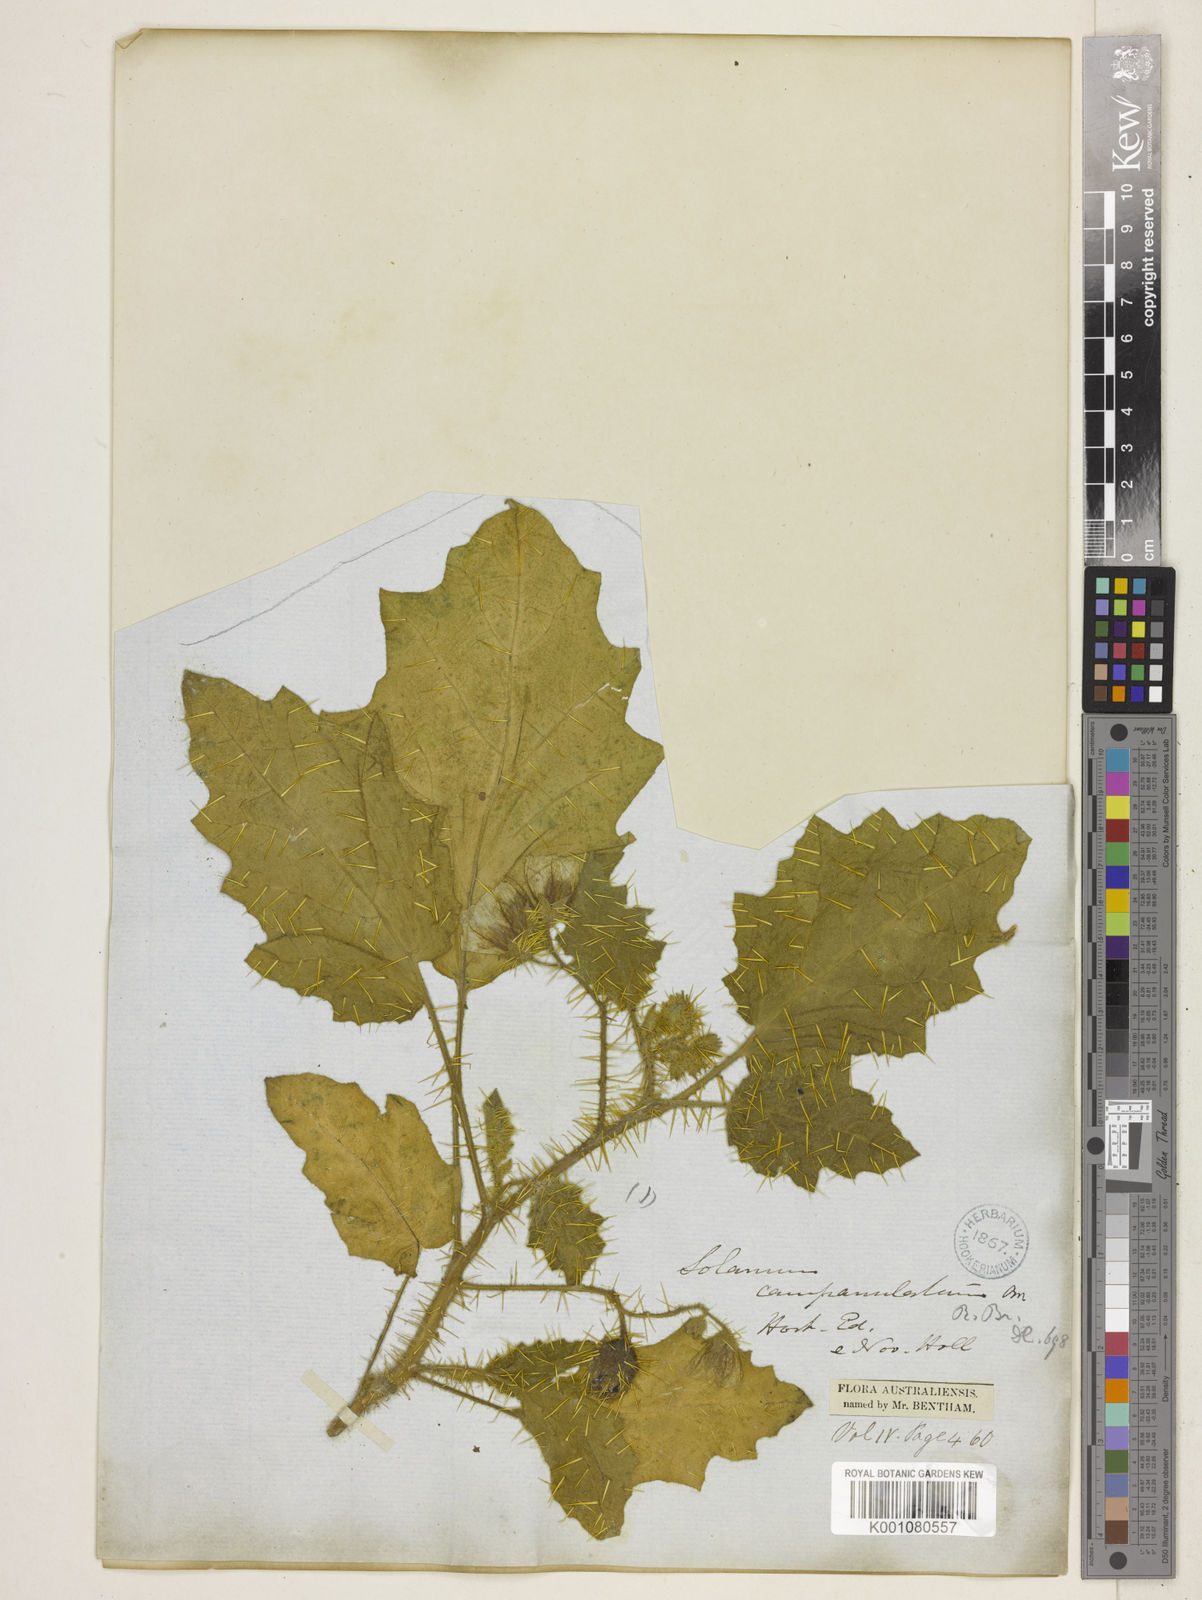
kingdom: Plantae
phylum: Tracheophyta
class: Magnoliopsida
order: Solanales
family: Solanaceae
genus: Solanum
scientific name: Solanum campanulatum
